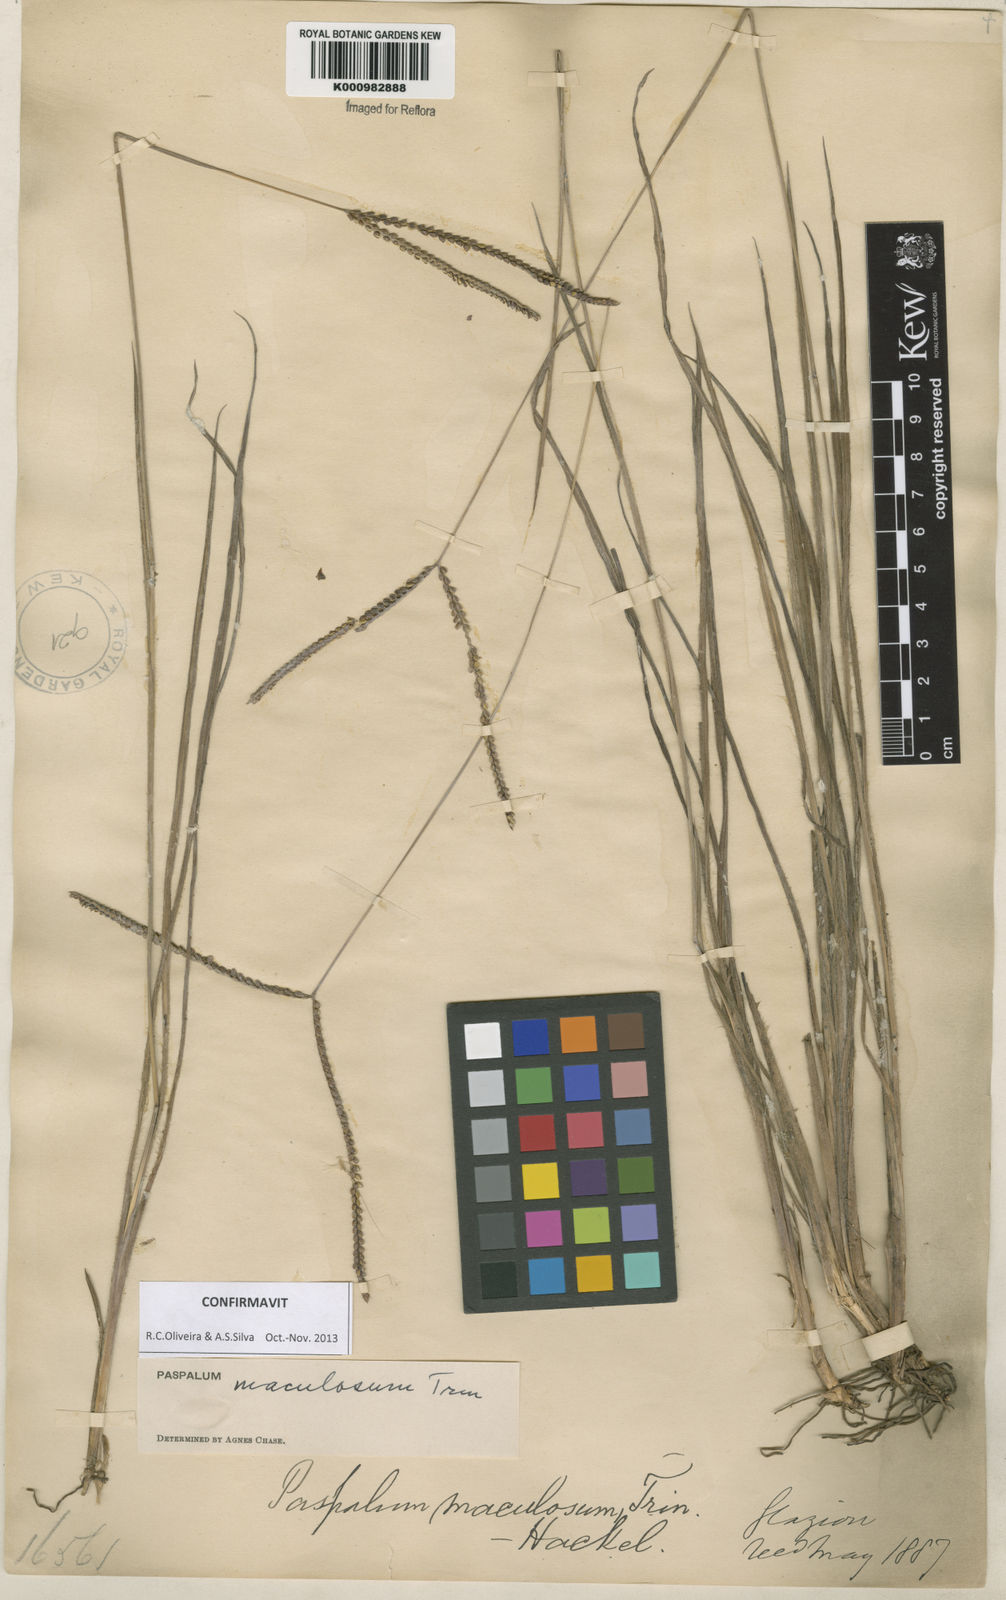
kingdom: Plantae
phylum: Tracheophyta
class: Liliopsida
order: Poales
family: Poaceae
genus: Paspalum
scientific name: Paspalum maculosum
